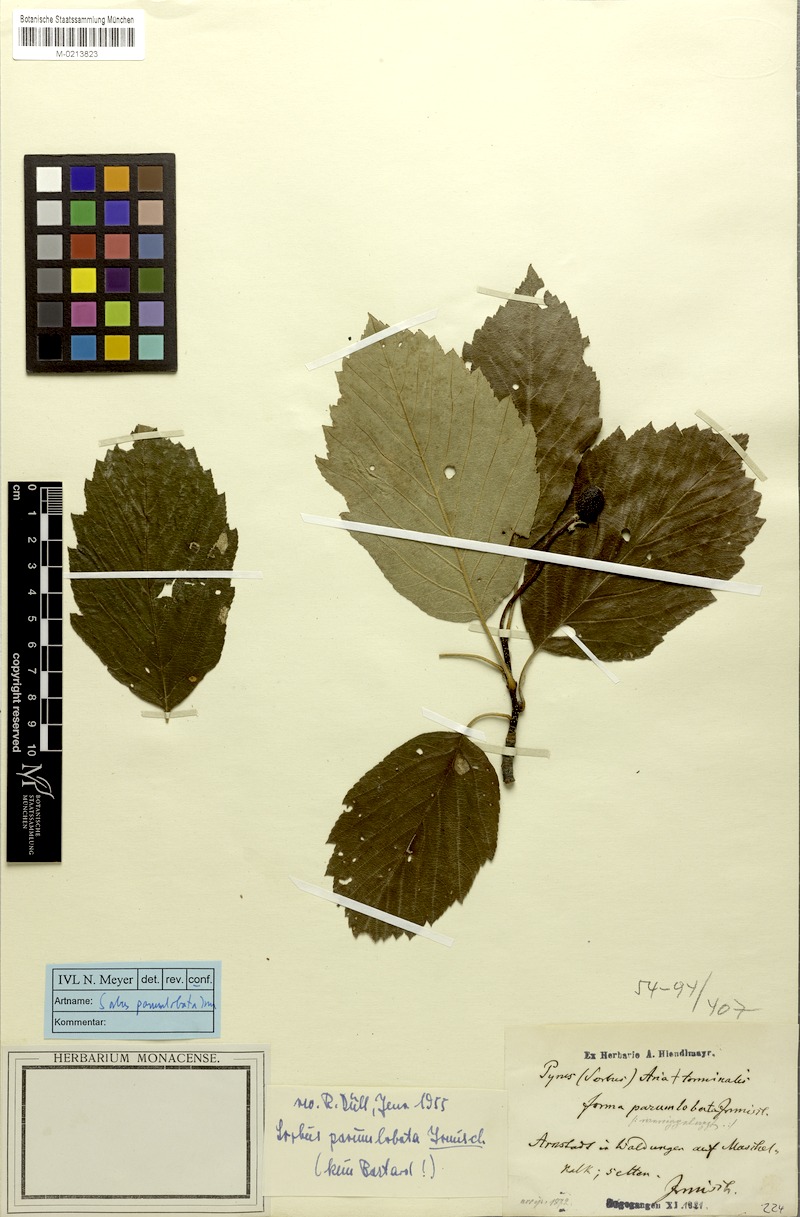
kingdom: Plantae
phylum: Tracheophyta
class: Magnoliopsida
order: Rosales
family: Rosaceae
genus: Karpatiosorbus
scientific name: Karpatiosorbus hybrida
